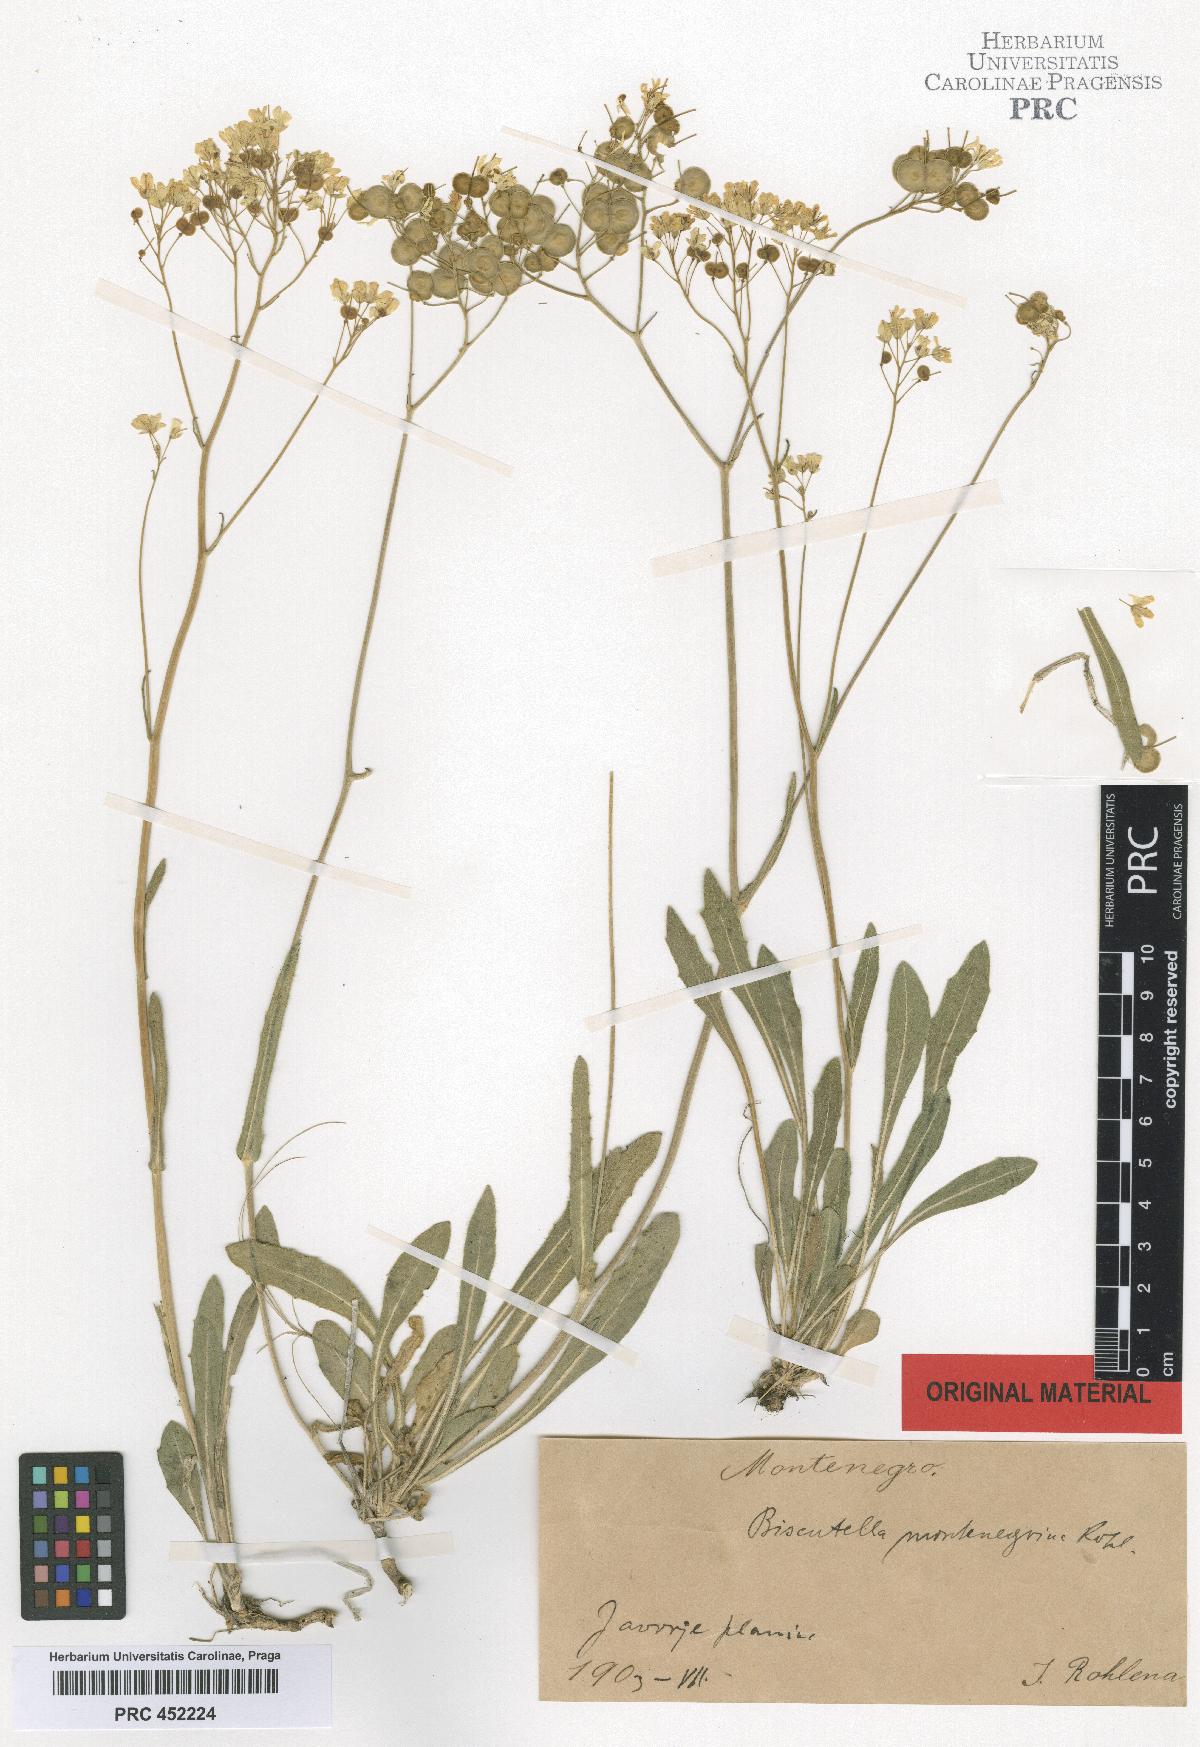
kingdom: Plantae
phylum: Tracheophyta
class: Magnoliopsida
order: Brassicales
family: Brassicaceae
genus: Biscutella
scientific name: Biscutella laevigata
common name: Buckler mustard
